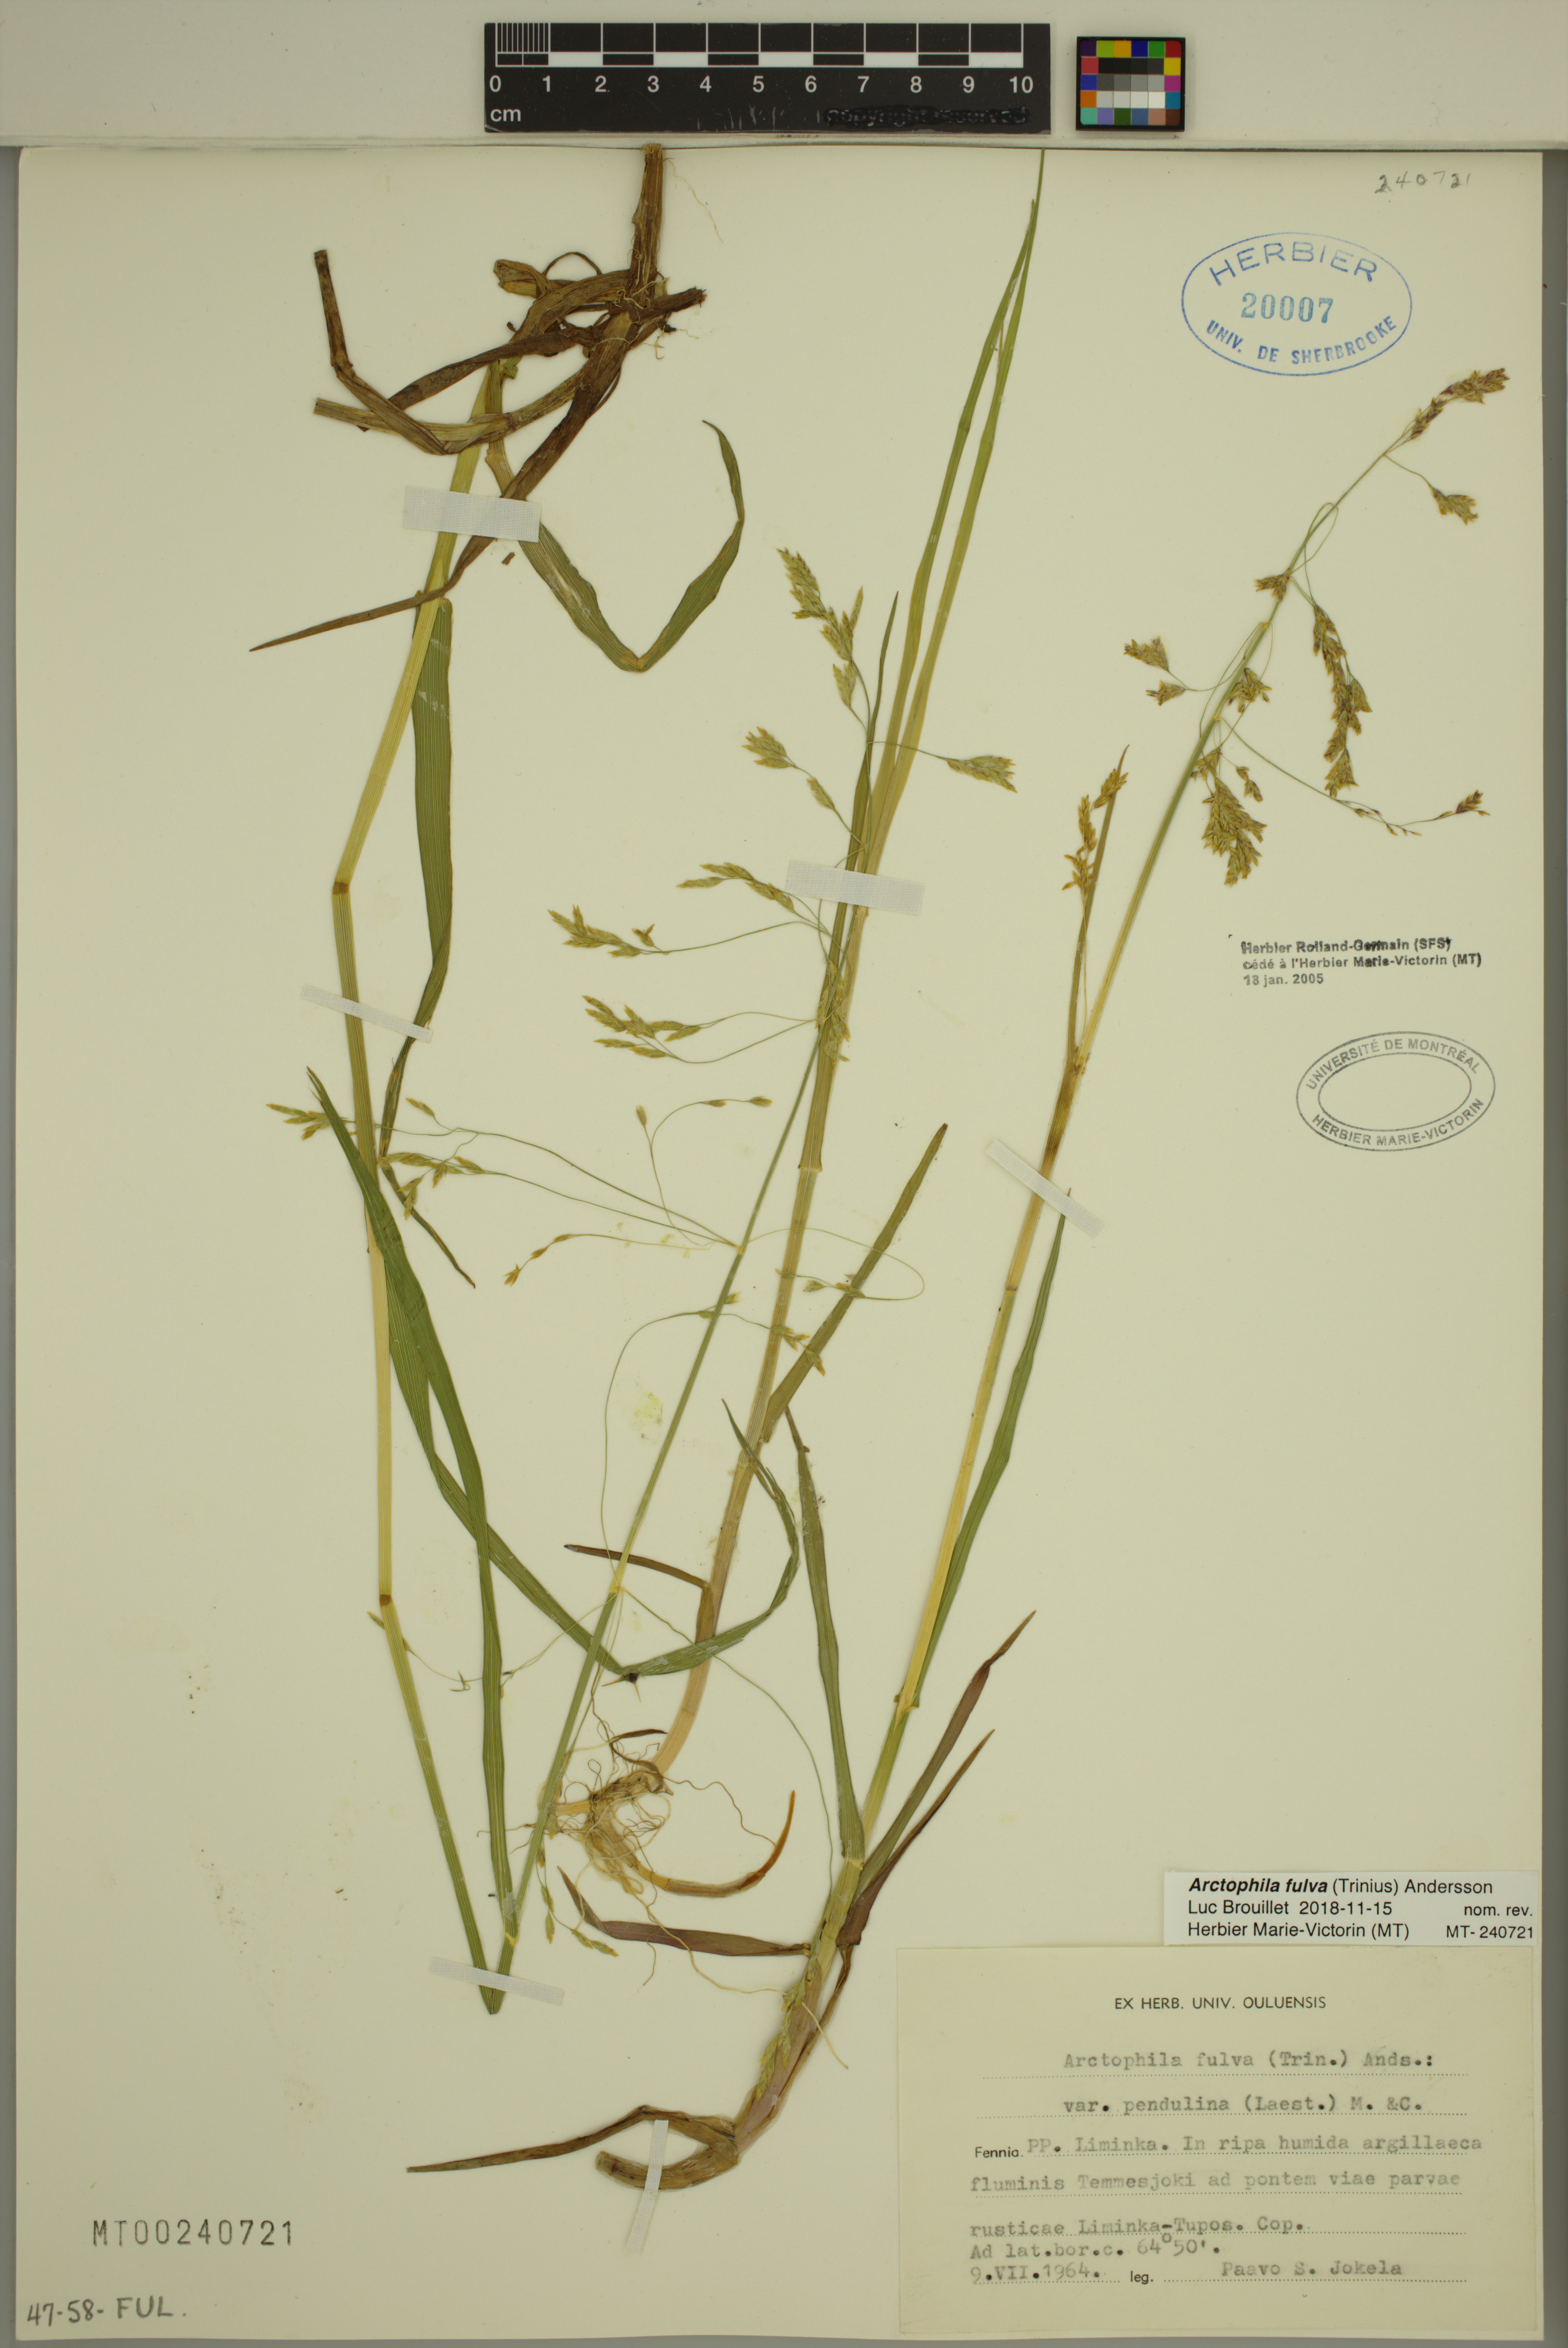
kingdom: Plantae
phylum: Tracheophyta
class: Liliopsida
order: Poales
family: Poaceae
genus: Dupontia
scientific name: Dupontia fulva
